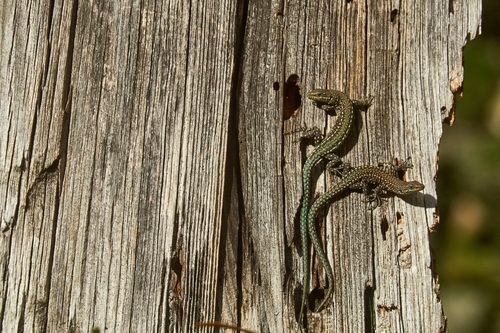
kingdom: Animalia
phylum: Chordata
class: Squamata
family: Lacertidae
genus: Podarcis
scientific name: Podarcis guadarramae
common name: Guadarrama wall lizard
